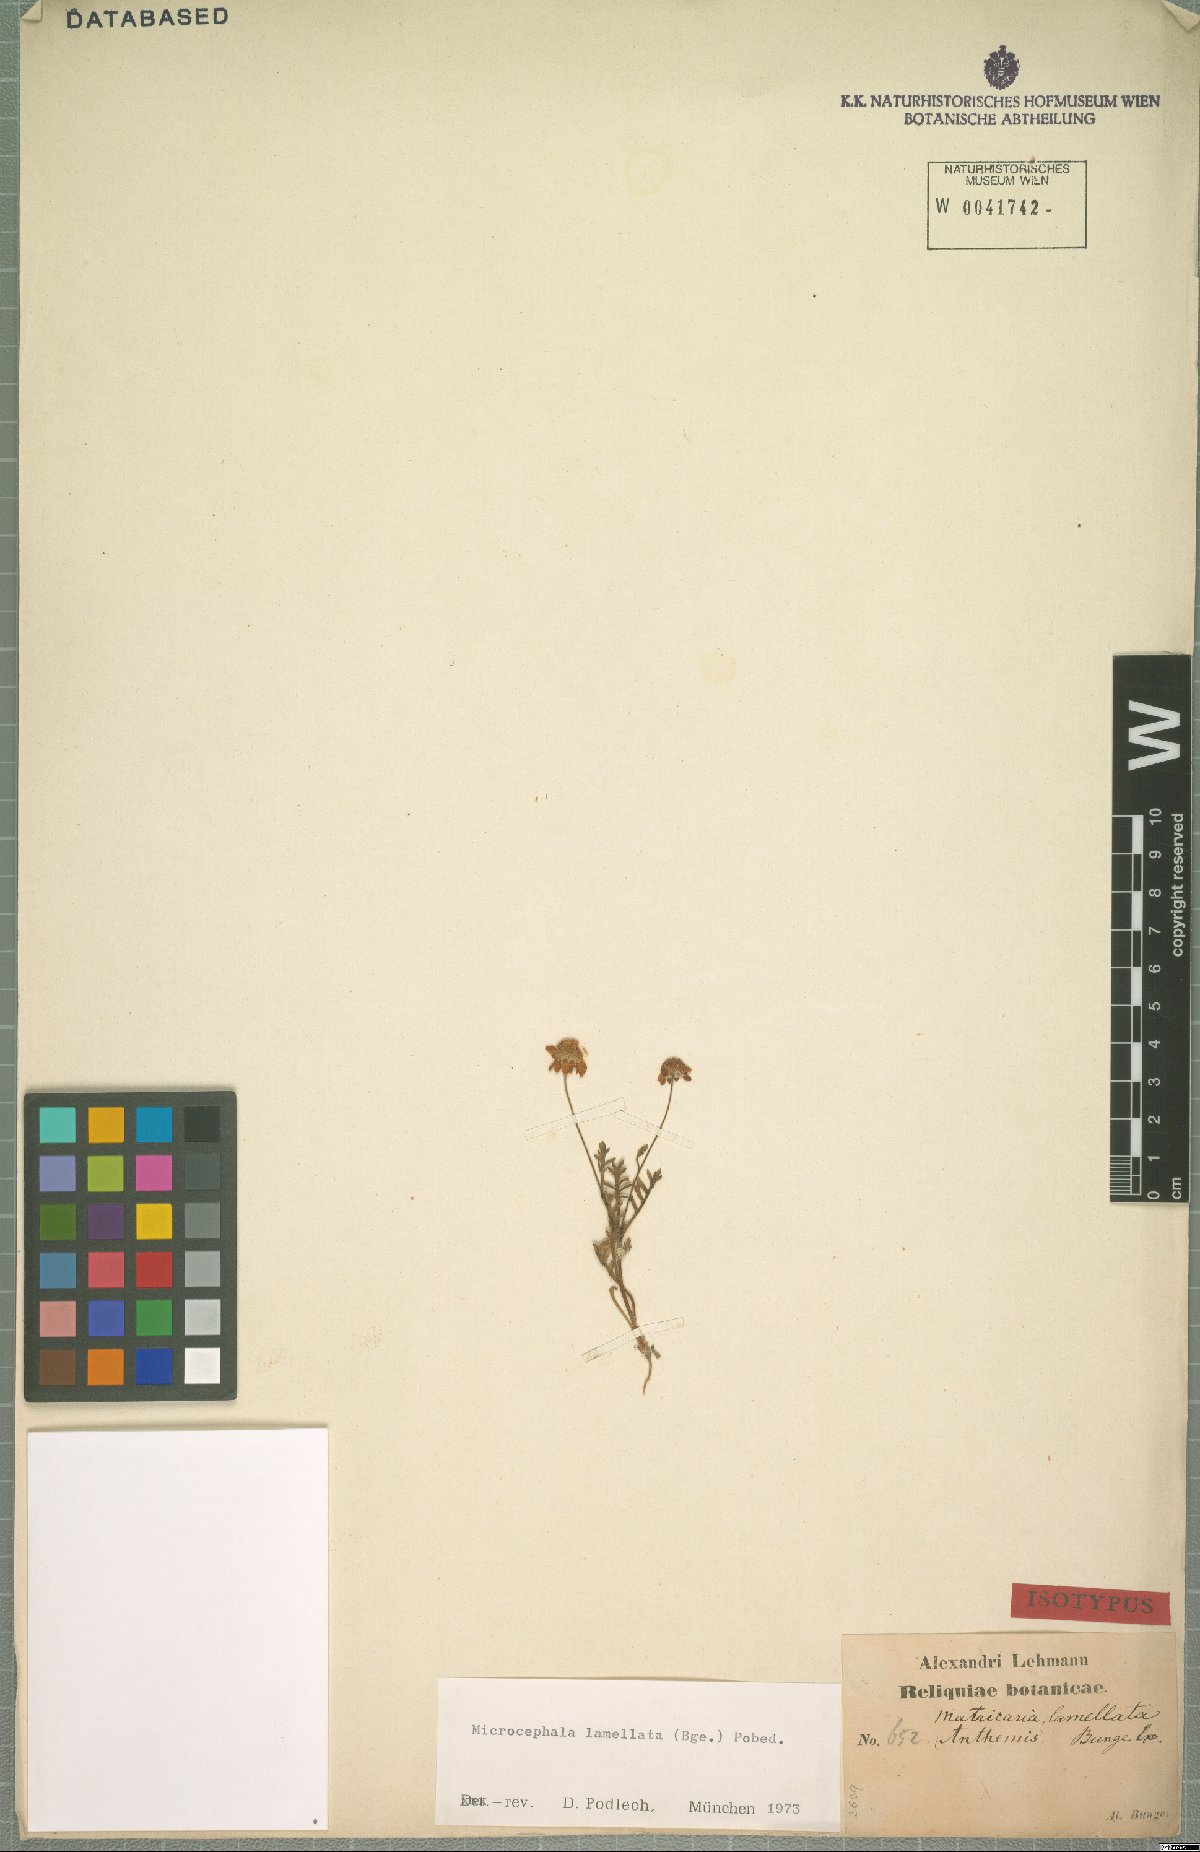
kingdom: Plantae
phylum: Tracheophyta
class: Magnoliopsida
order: Asterales
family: Asteraceae
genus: Microcephala
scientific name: Microcephala lamellata
